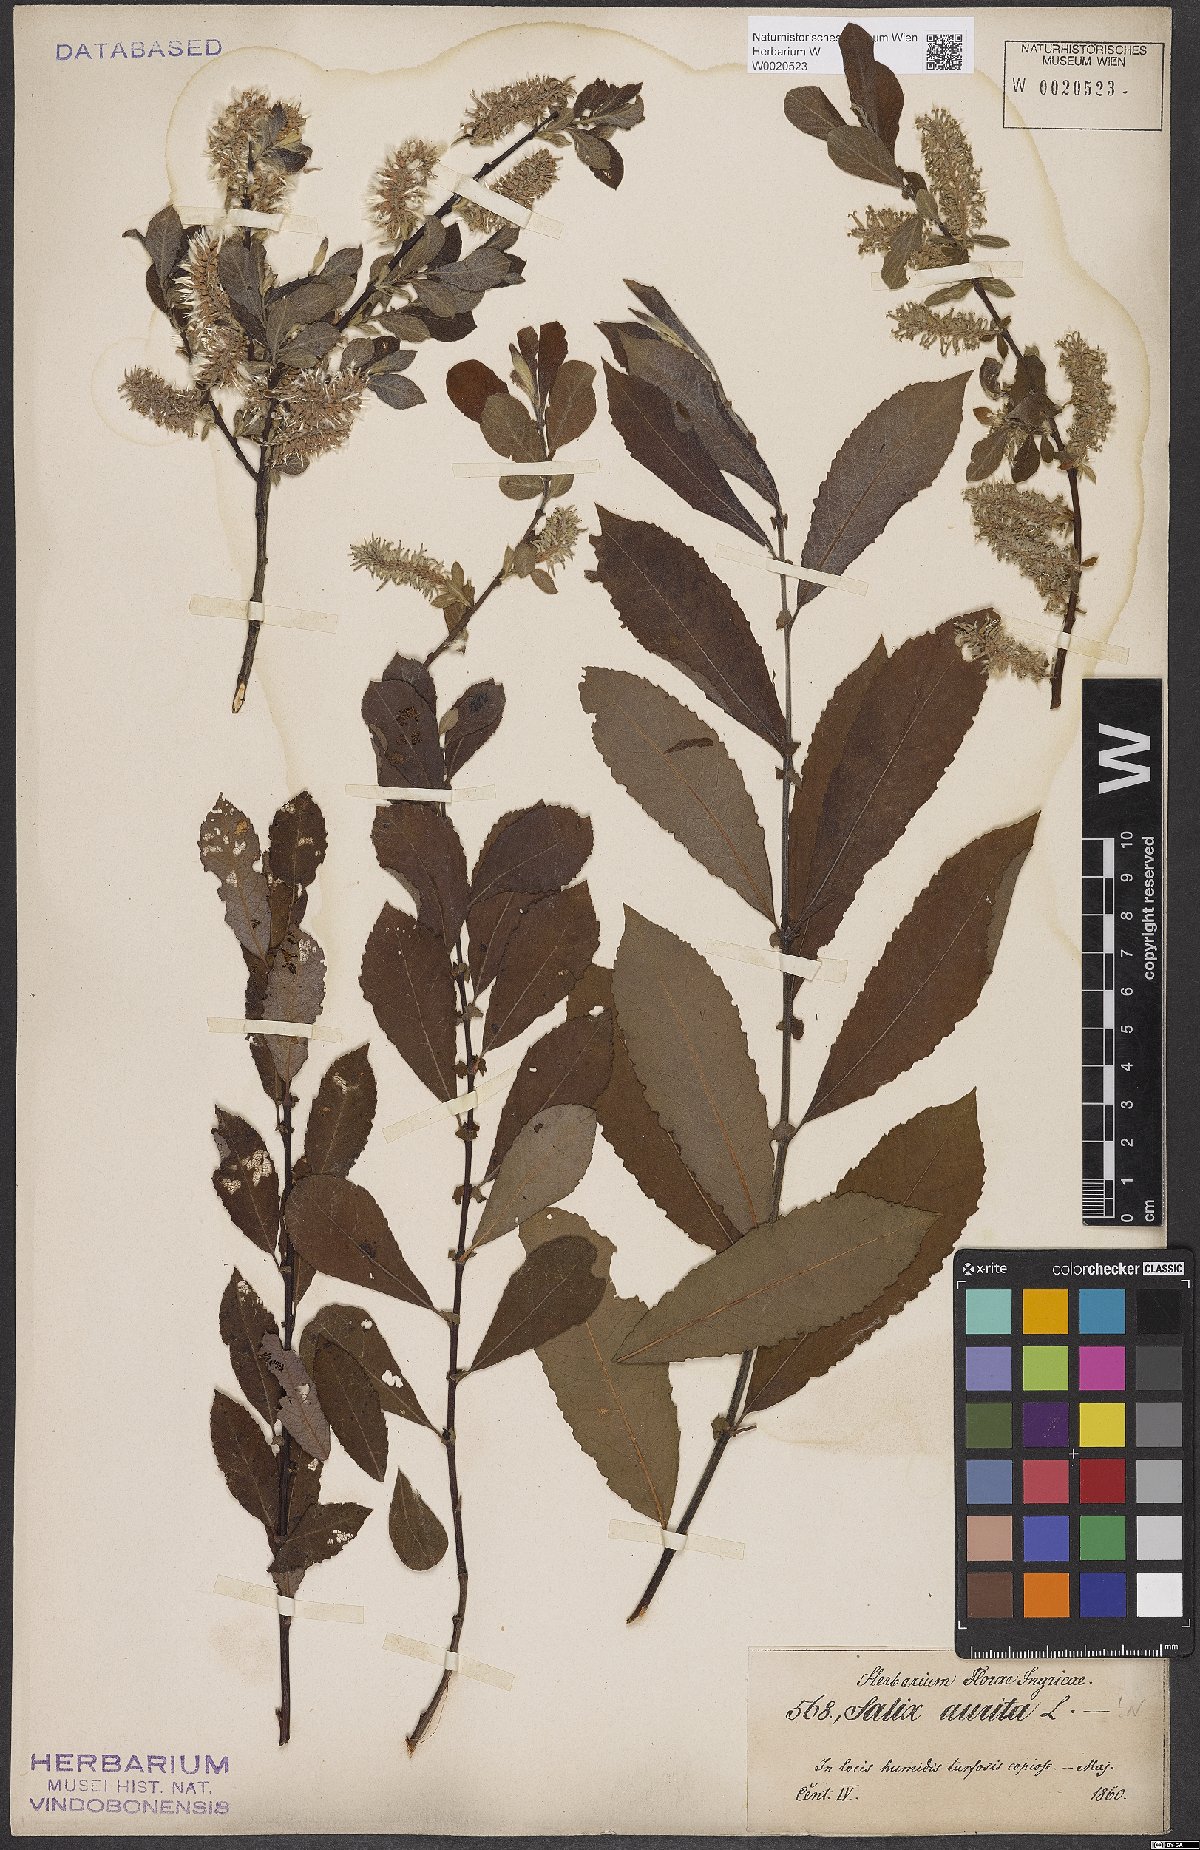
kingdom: Plantae
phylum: Tracheophyta
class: Magnoliopsida
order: Malpighiales
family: Salicaceae
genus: Salix
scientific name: Salix aurita
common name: Eared willow
